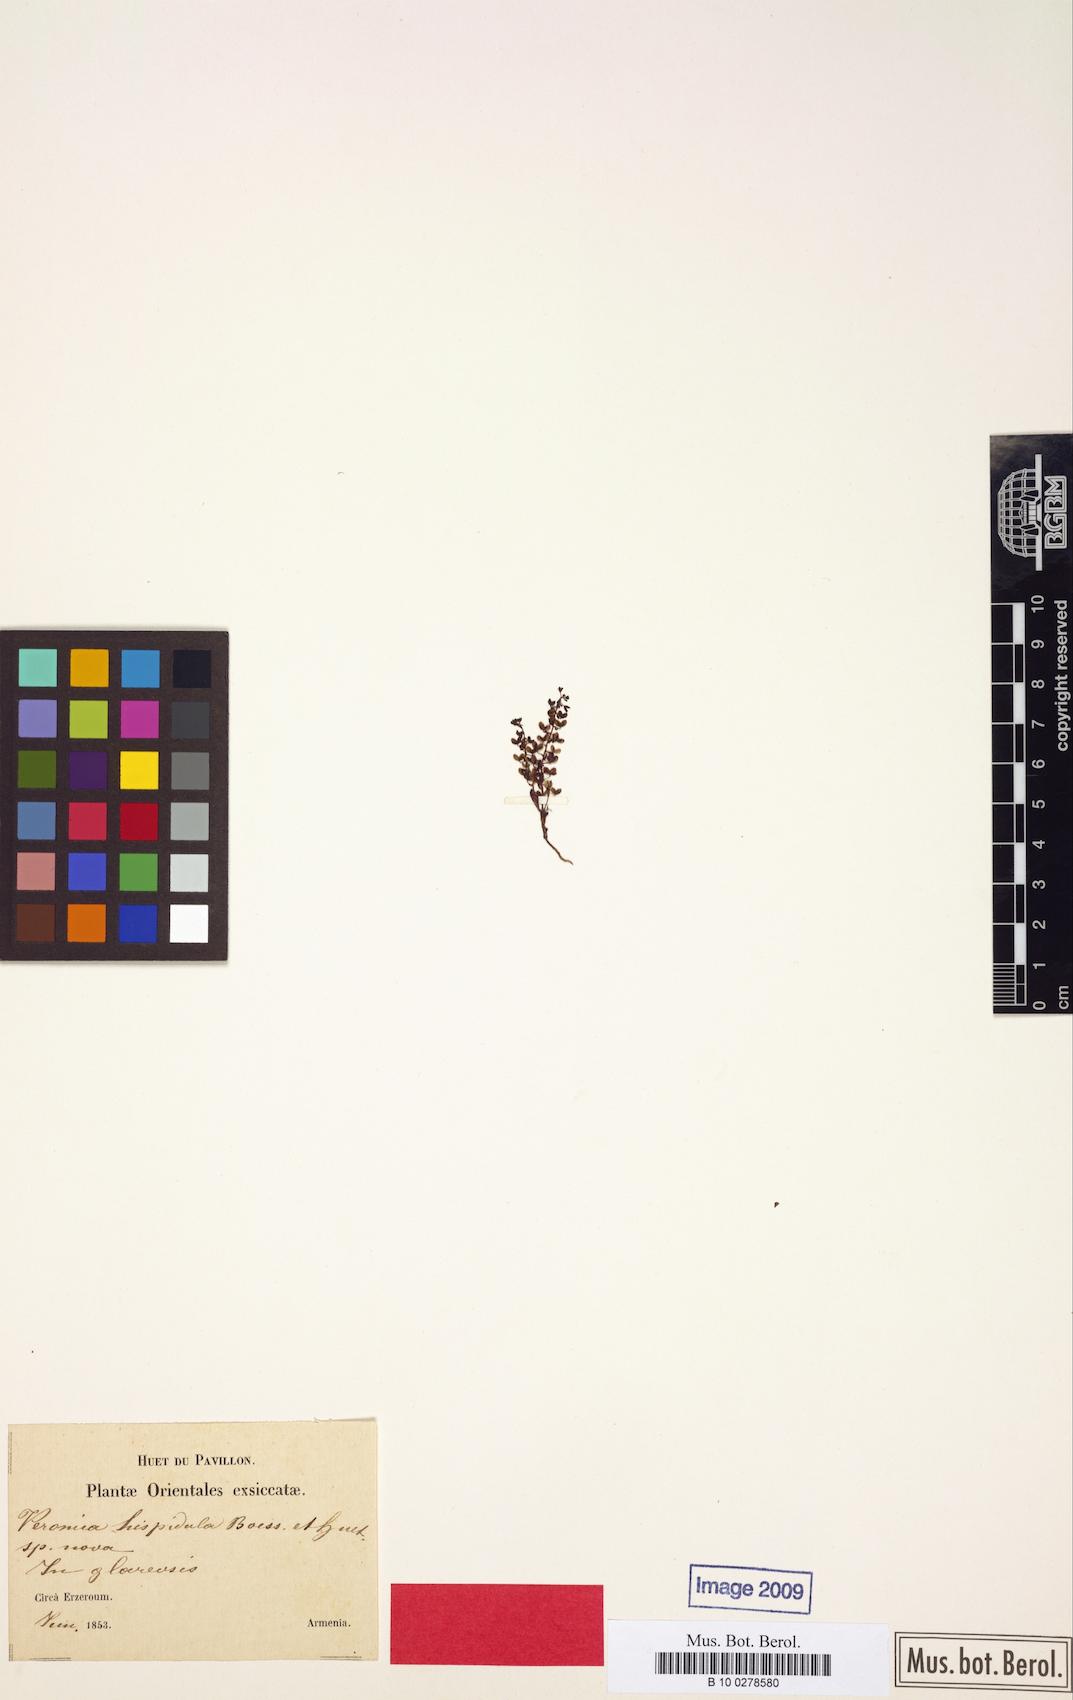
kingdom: Plantae
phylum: Tracheophyta
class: Magnoliopsida
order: Lamiales
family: Plantaginaceae
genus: Veronica
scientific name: Veronica hispidula
